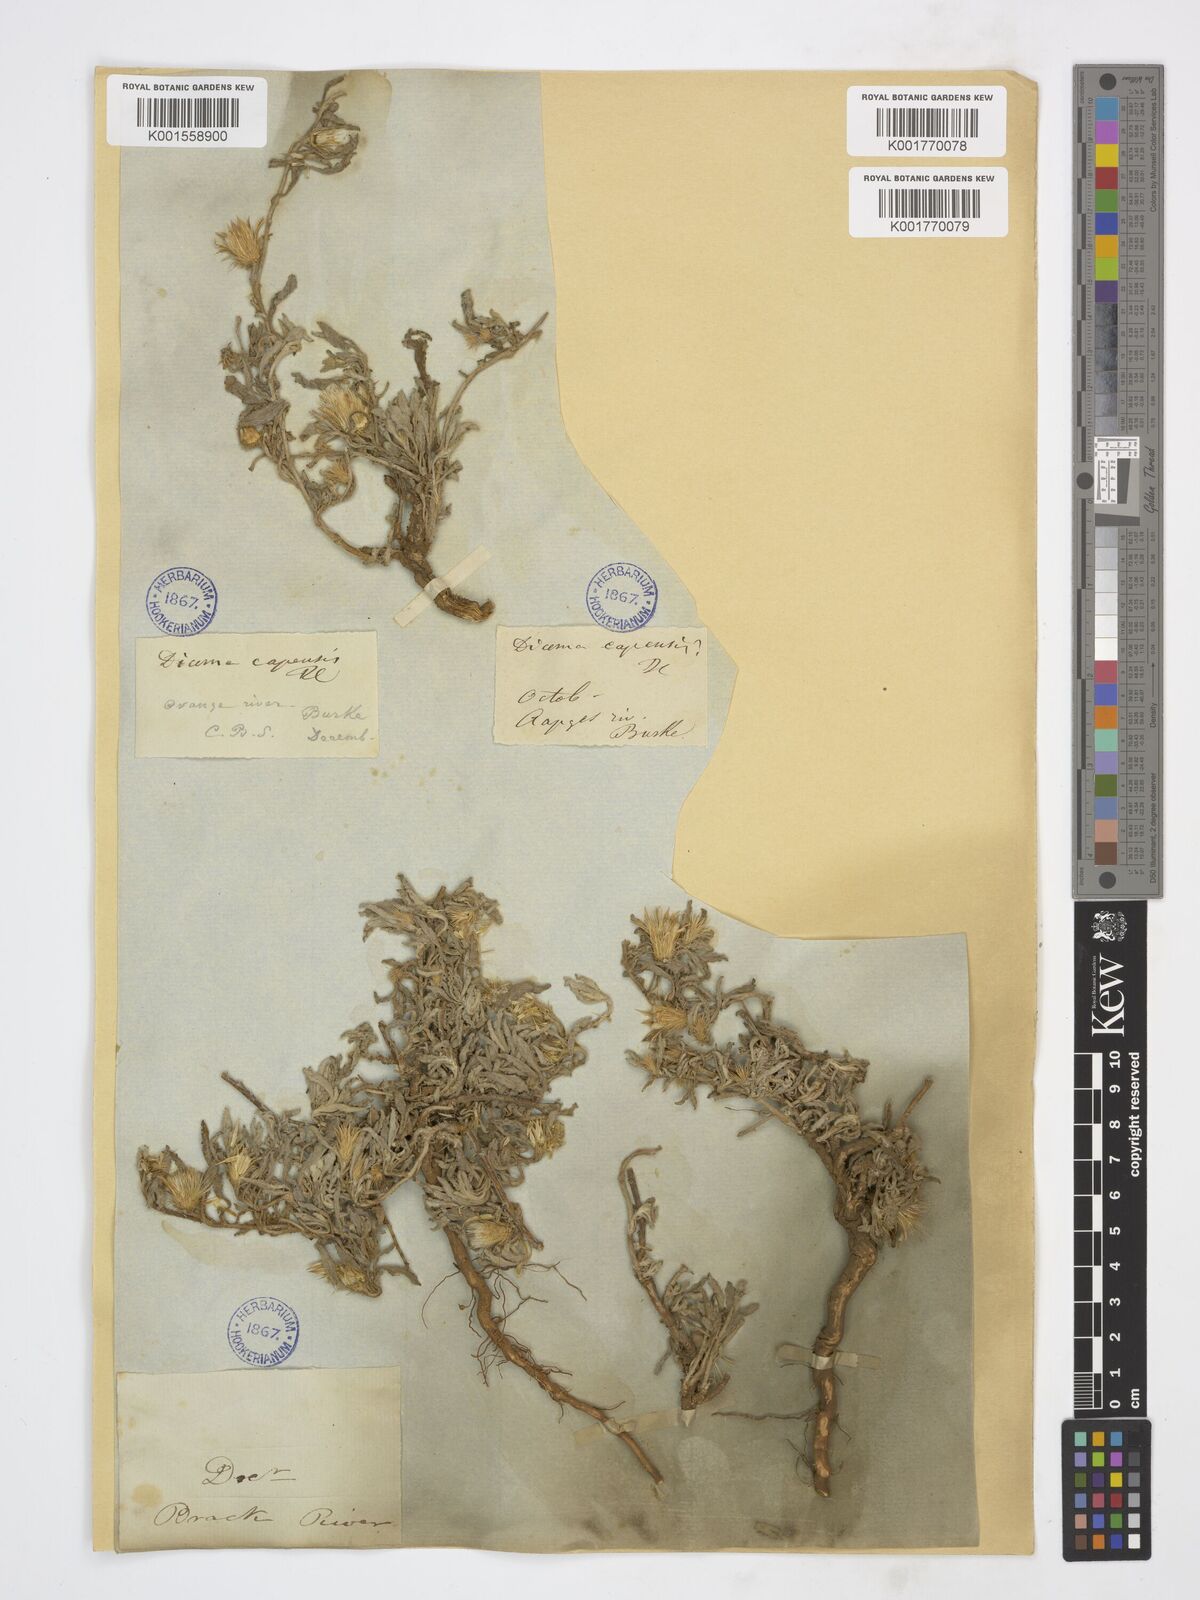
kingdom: Plantae
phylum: Tracheophyta
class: Magnoliopsida
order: Asterales
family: Asteraceae
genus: Dicoma
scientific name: Dicoma capensis
